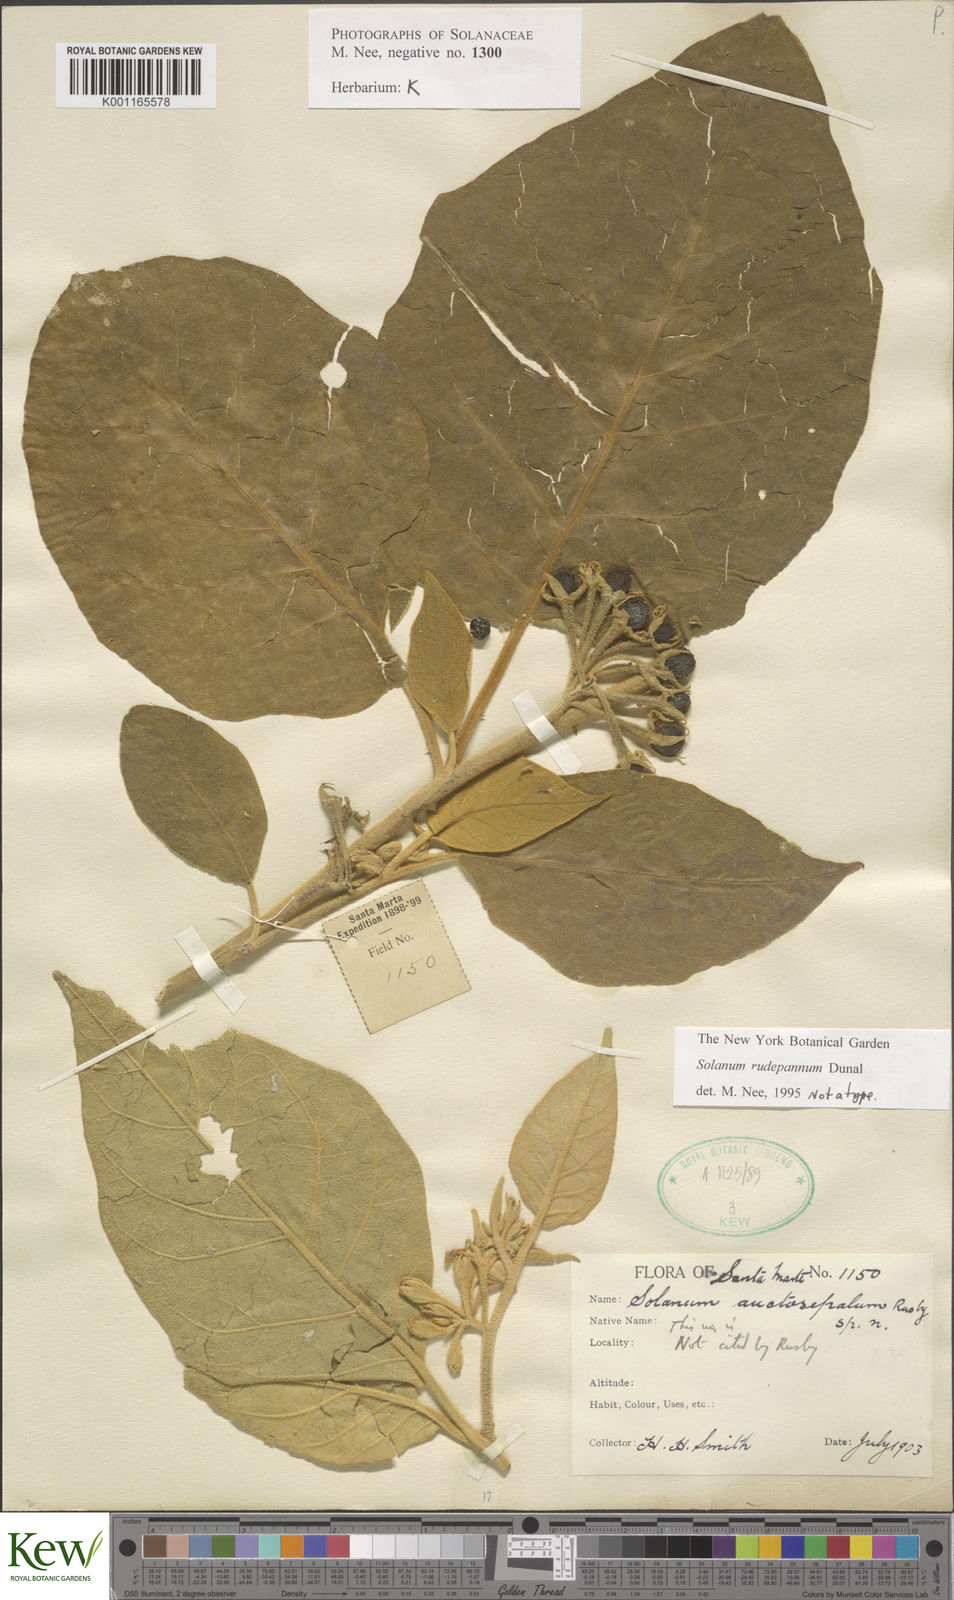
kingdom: Plantae
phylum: Tracheophyta
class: Magnoliopsida
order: Solanales
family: Solanaceae
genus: Solanum
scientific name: Solanum rude-pannum
